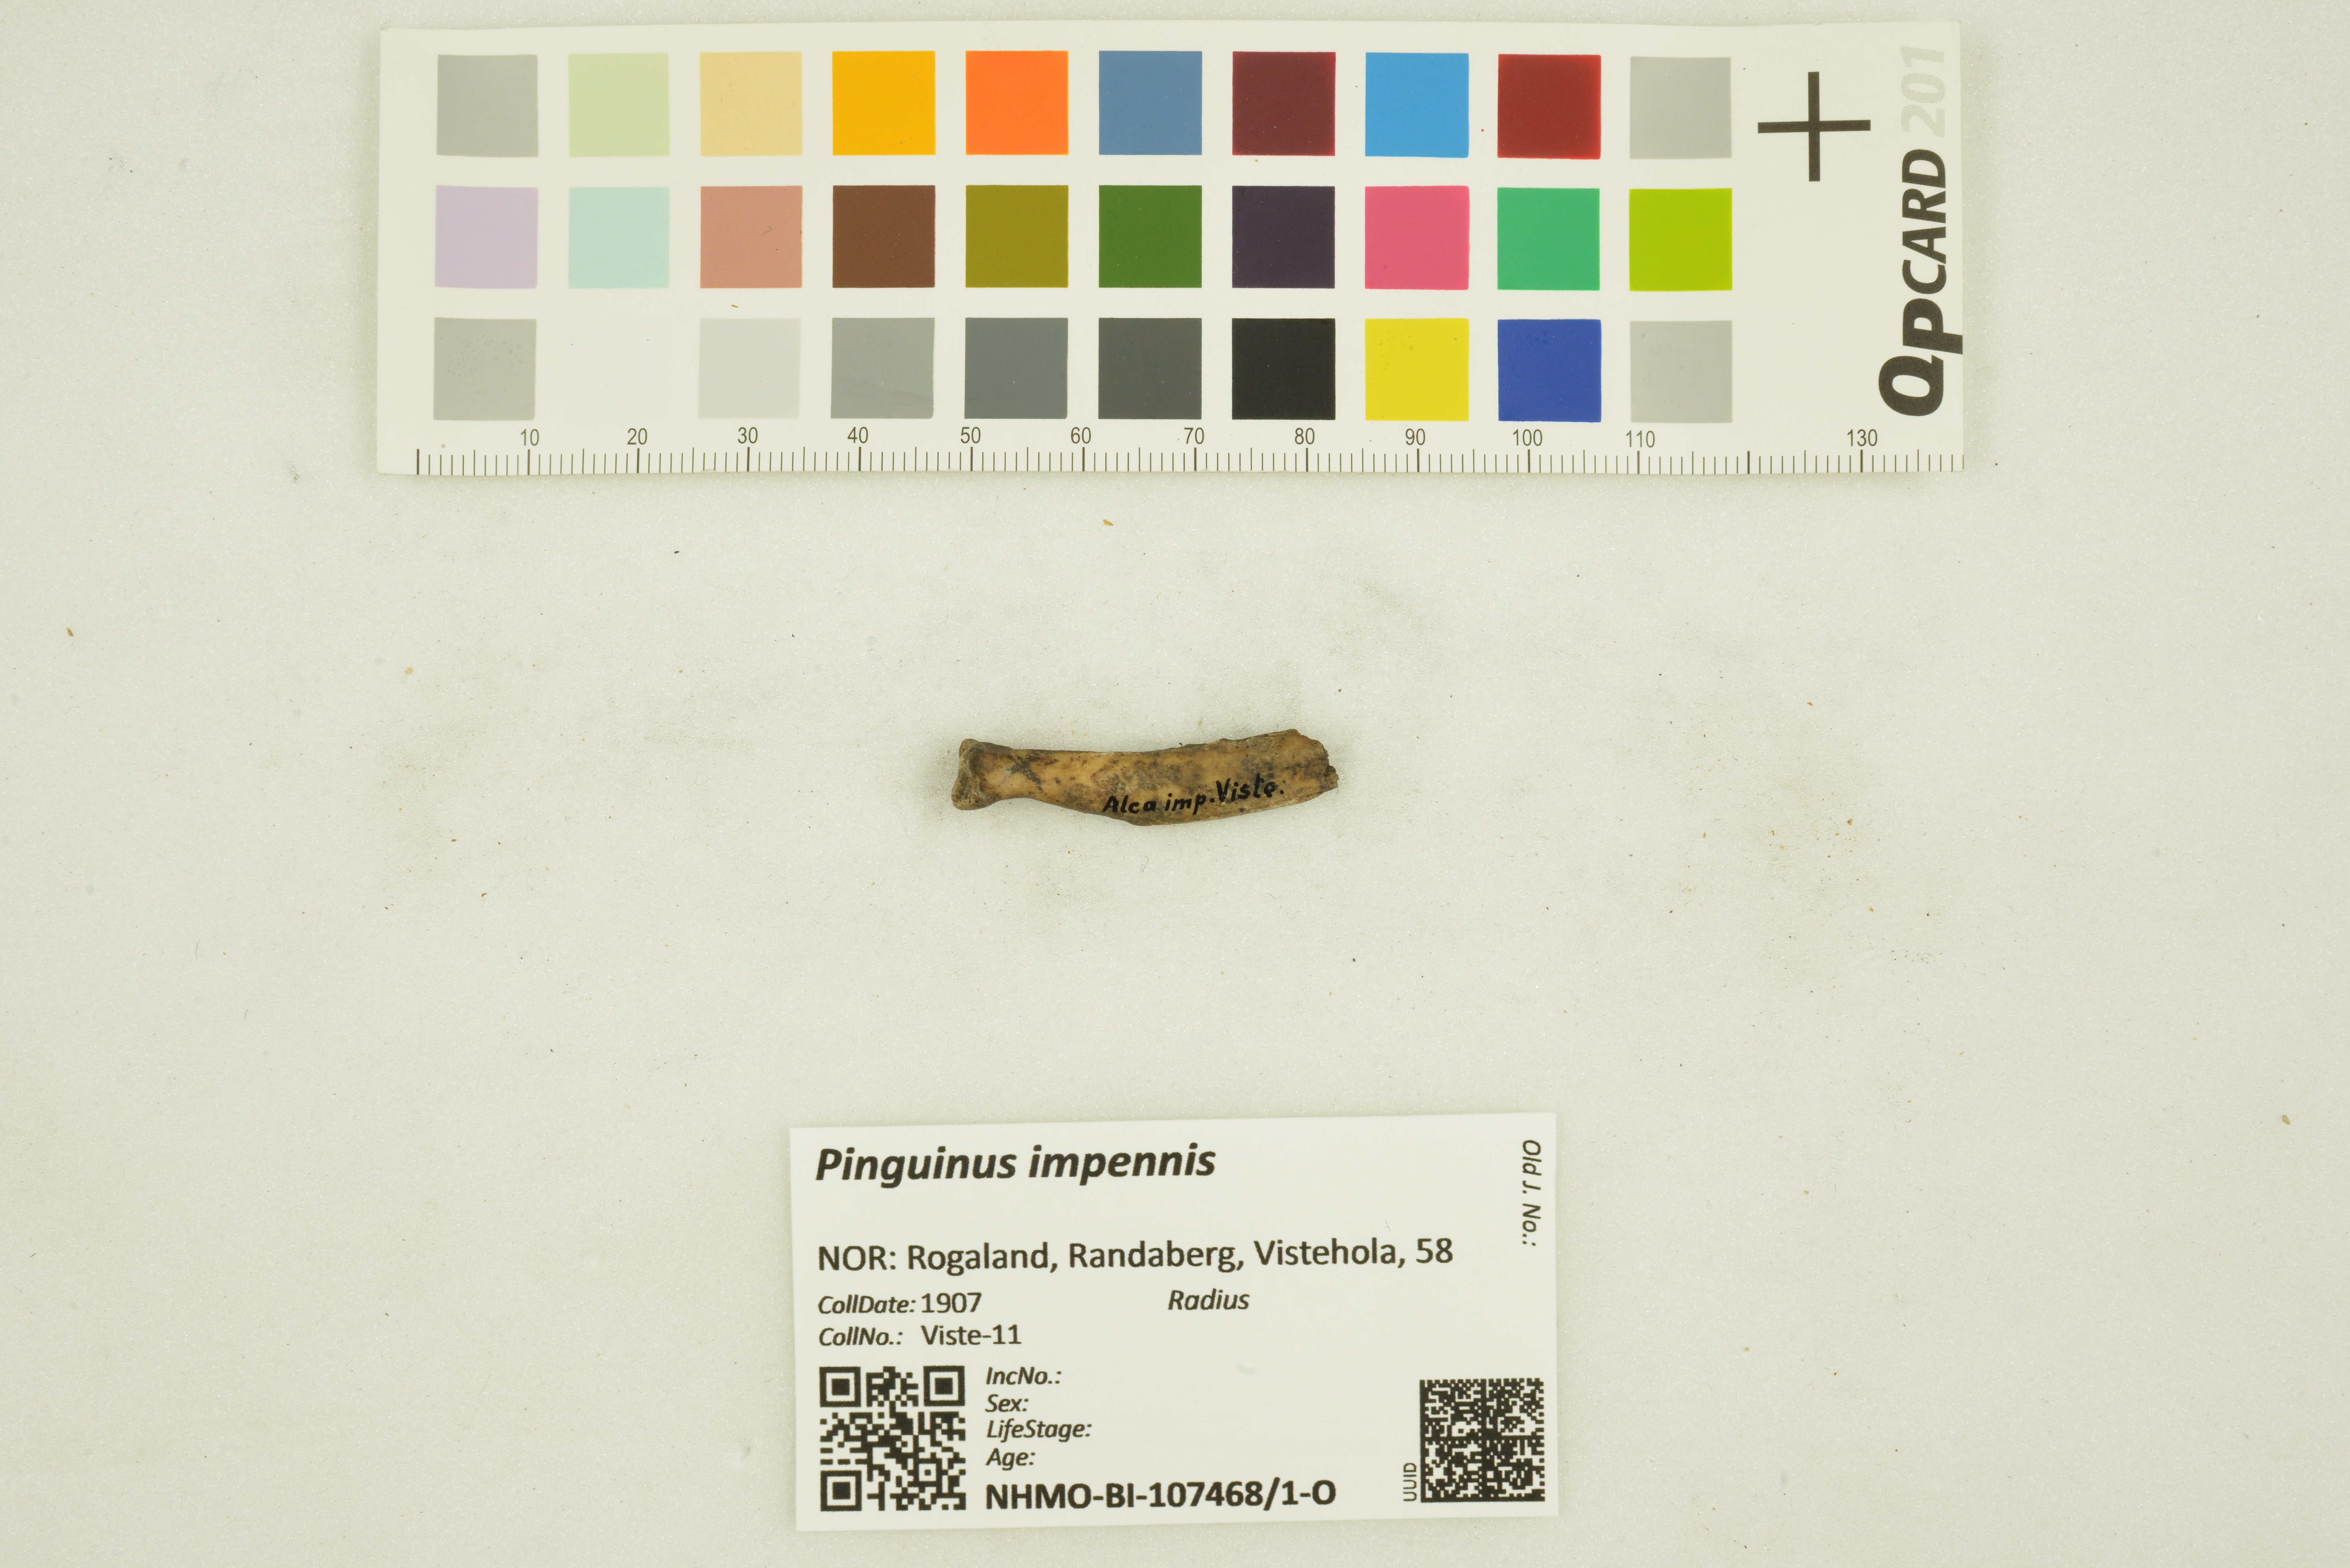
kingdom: Animalia
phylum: Chordata
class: Aves
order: Charadriiformes
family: Alcidae
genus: Pinguinus
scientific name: Pinguinus impennis
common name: Great auk
